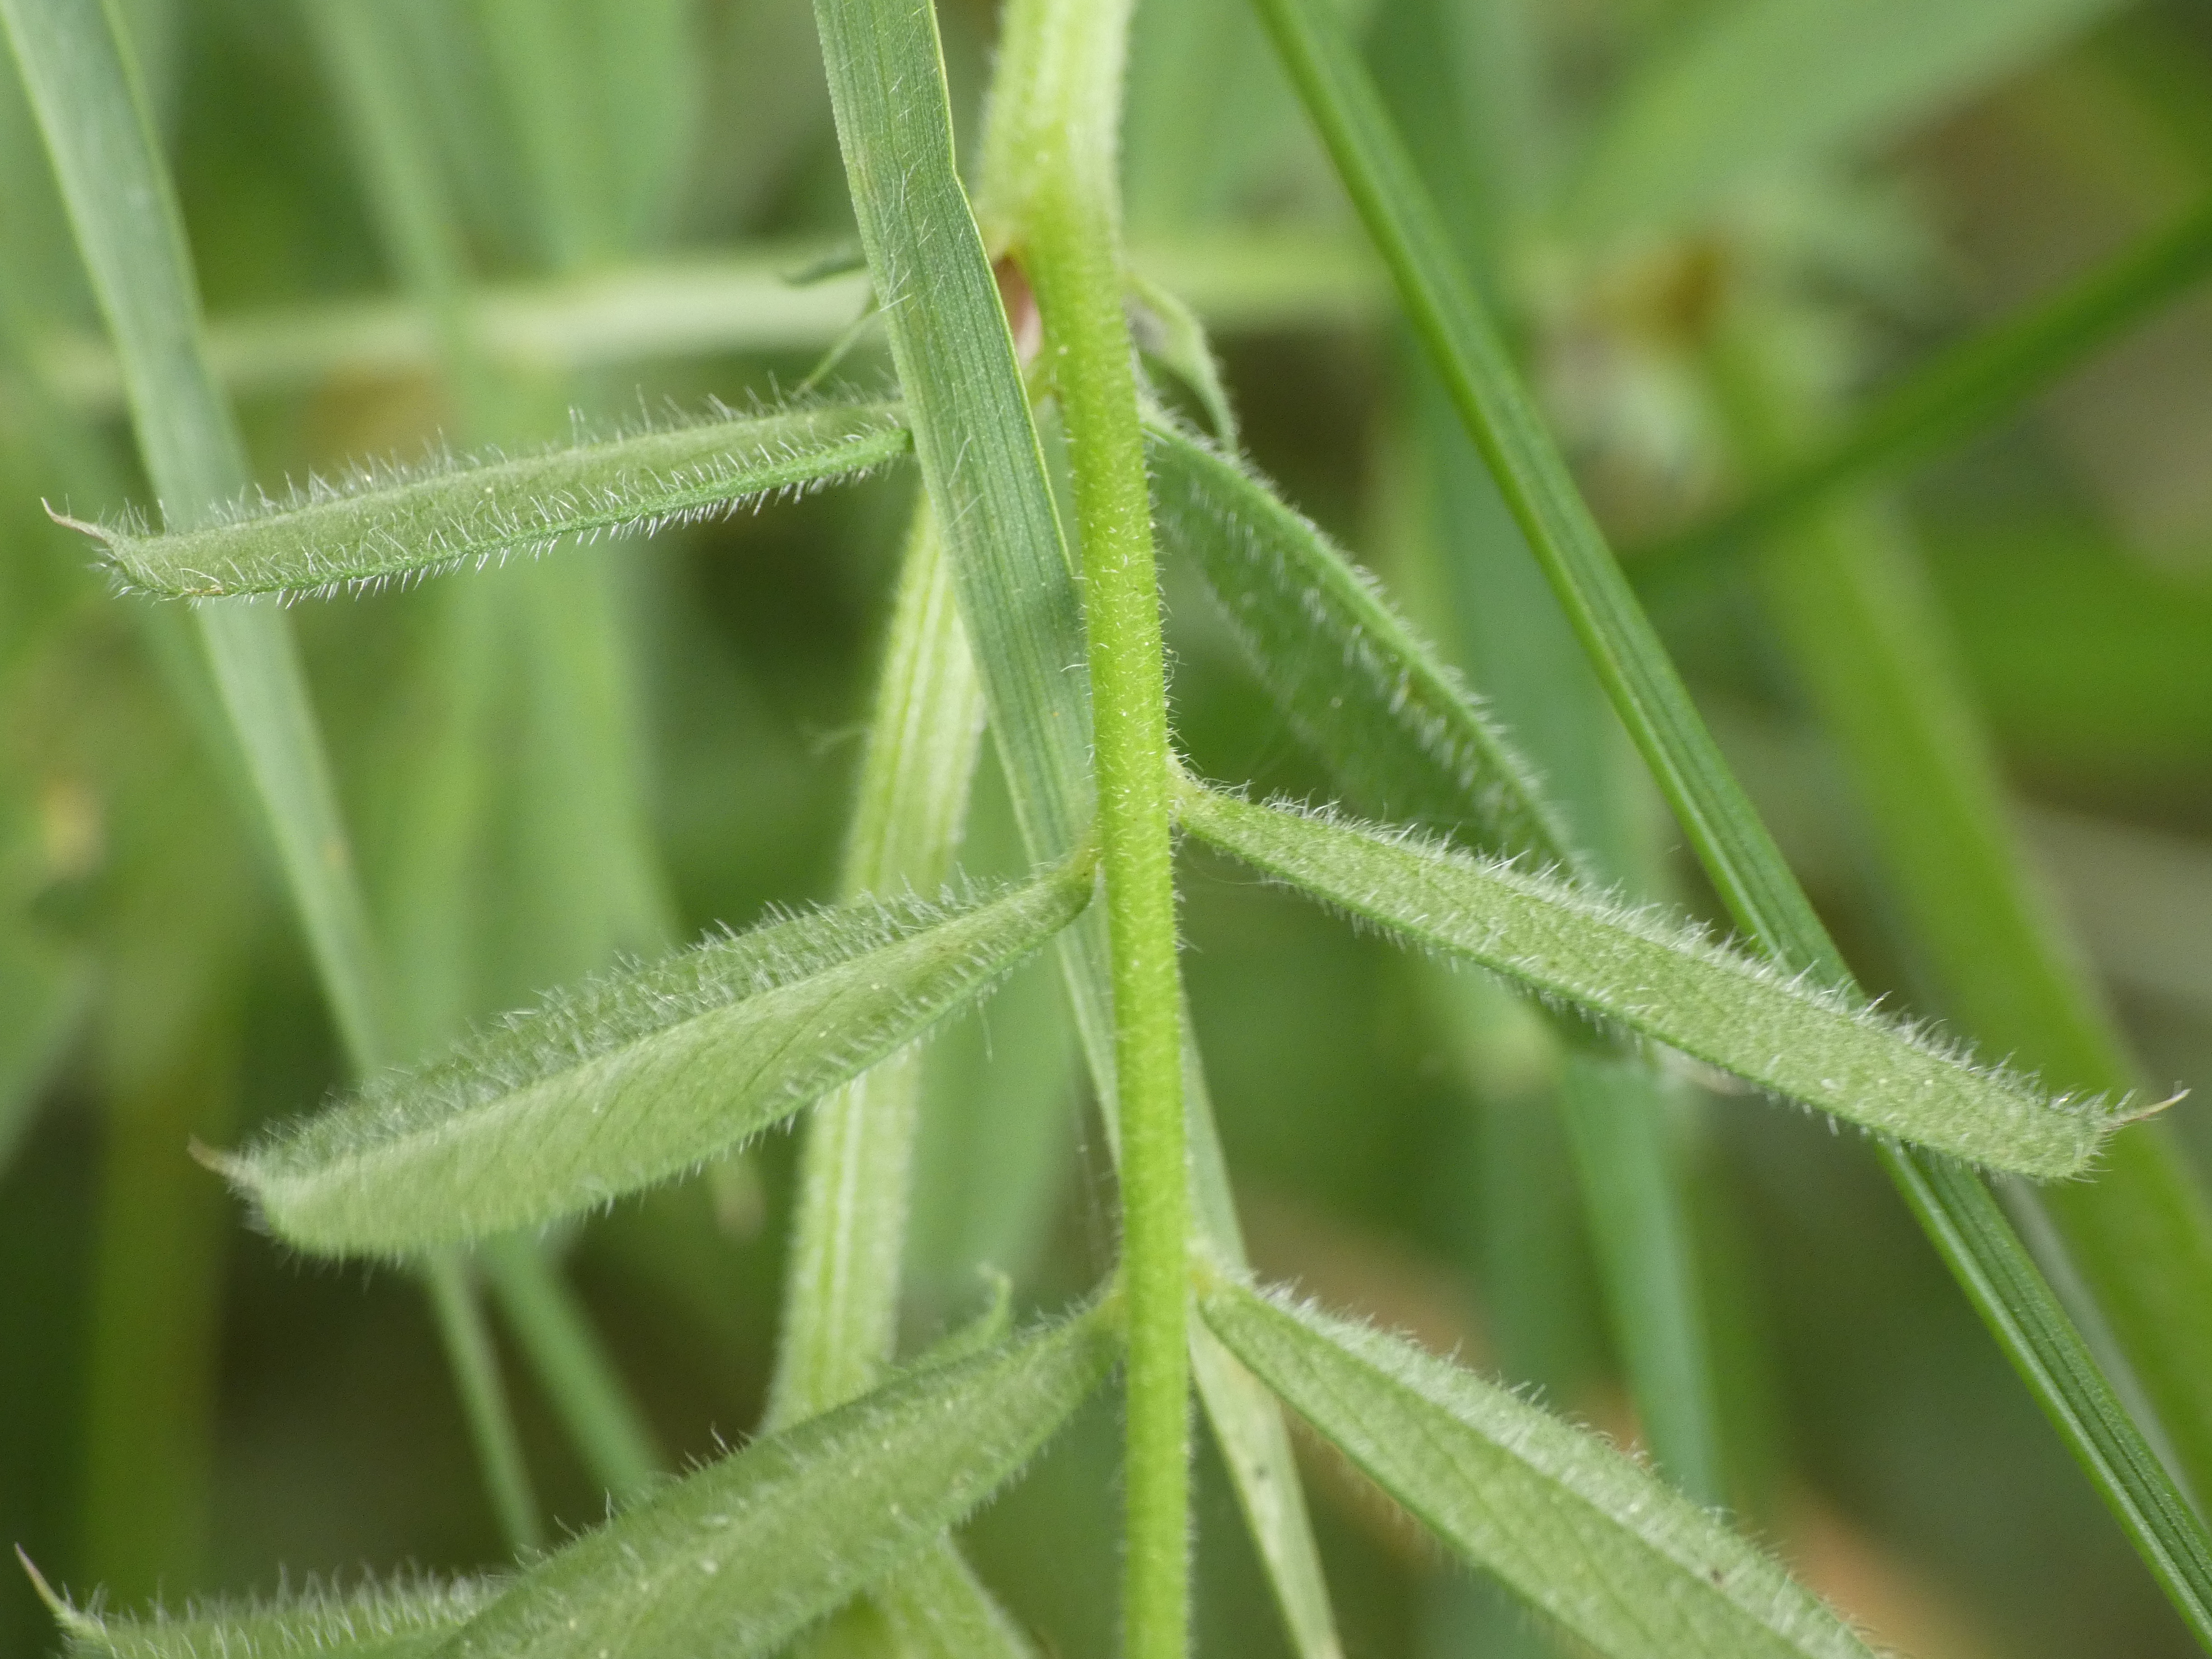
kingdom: Plantae
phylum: Tracheophyta
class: Magnoliopsida
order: Fabales
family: Fabaceae
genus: Vicia
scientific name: Vicia sativa
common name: Foder-vikke
